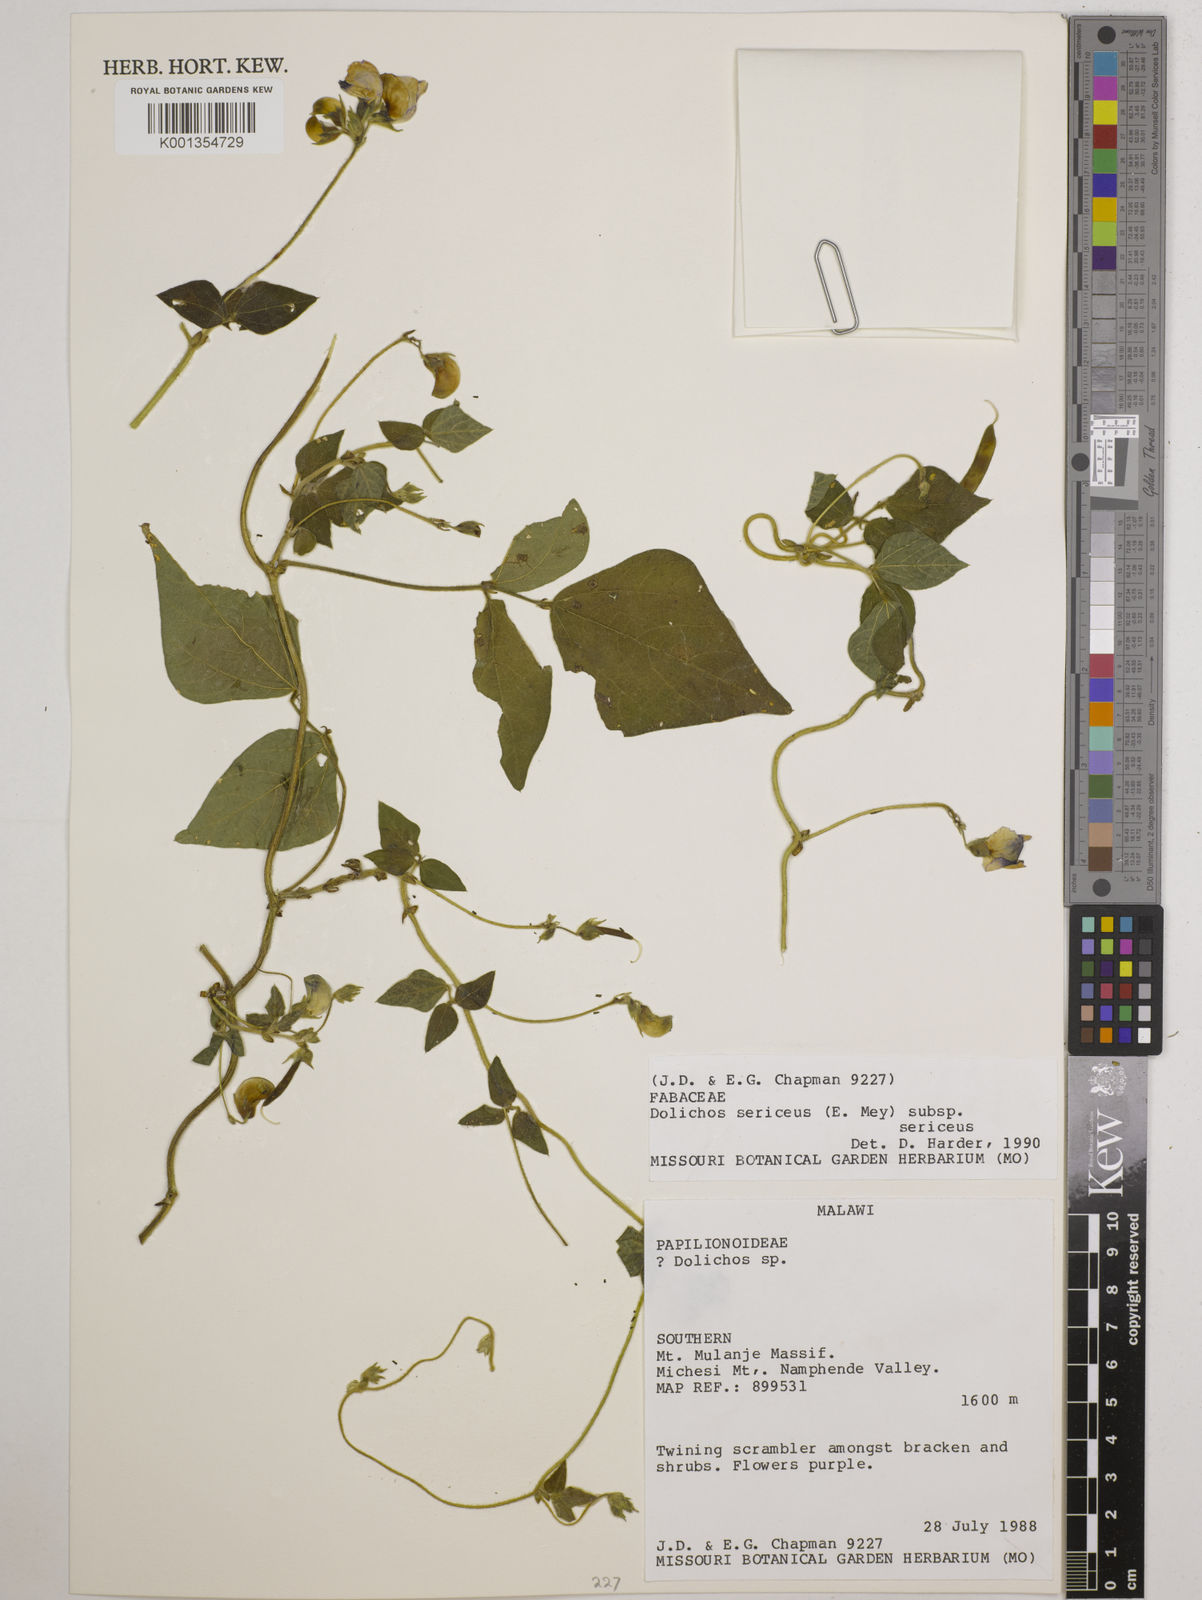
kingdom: Plantae
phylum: Tracheophyta
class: Magnoliopsida
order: Fabales
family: Fabaceae
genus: Dolichos
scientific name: Dolichos
